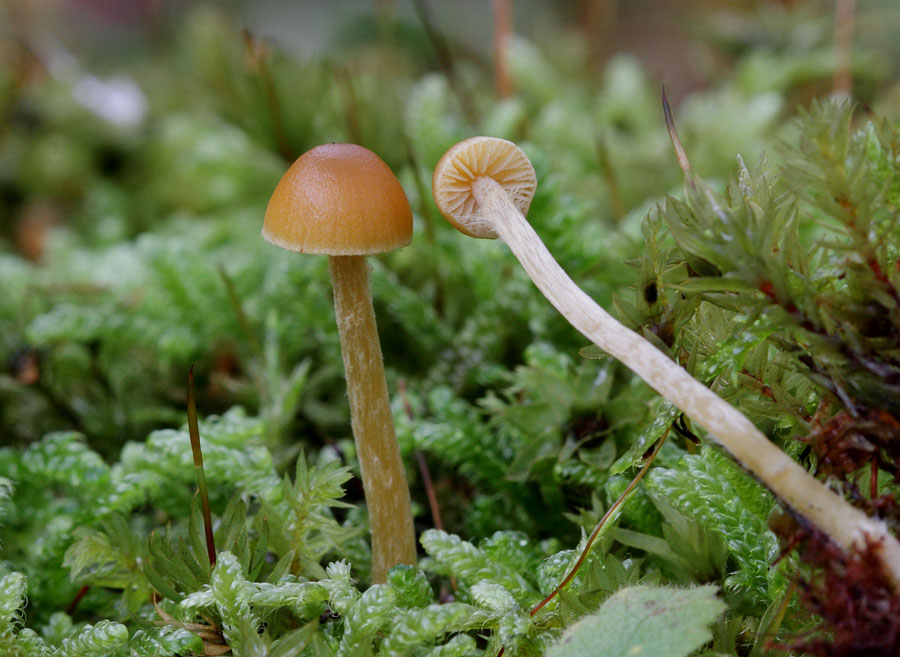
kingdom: Fungi
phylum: Basidiomycota
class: Agaricomycetes
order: Agaricales
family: Hymenogastraceae
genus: Galerina
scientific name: Galerina pumila
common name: honninggul hjelmhat
